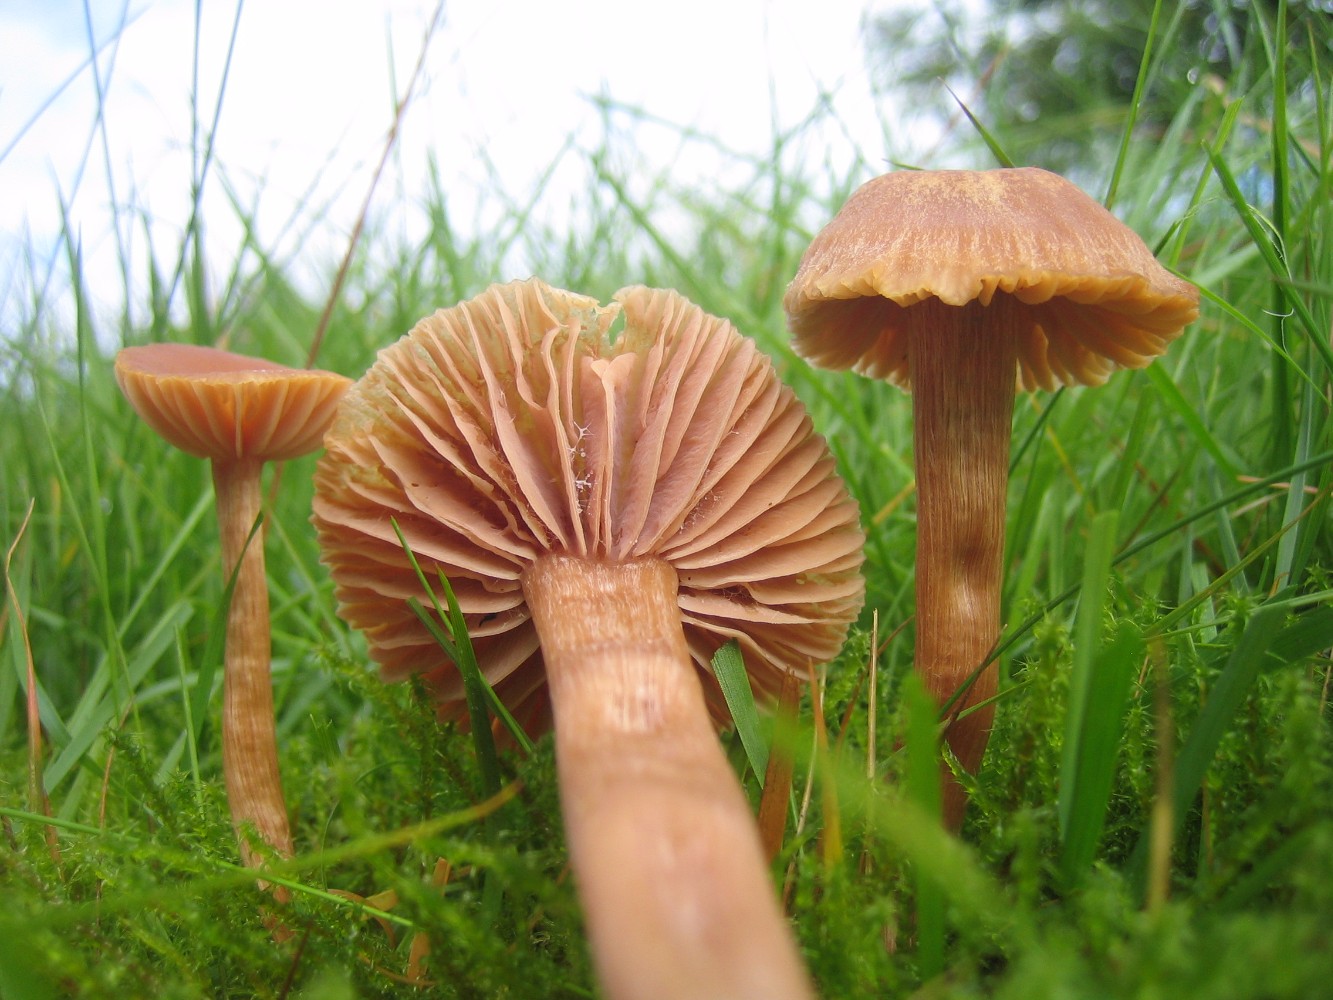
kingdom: Fungi
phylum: Basidiomycota
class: Agaricomycetes
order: Agaricales
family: Hydnangiaceae
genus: Laccaria
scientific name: Laccaria laccata
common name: rød ametysthat
